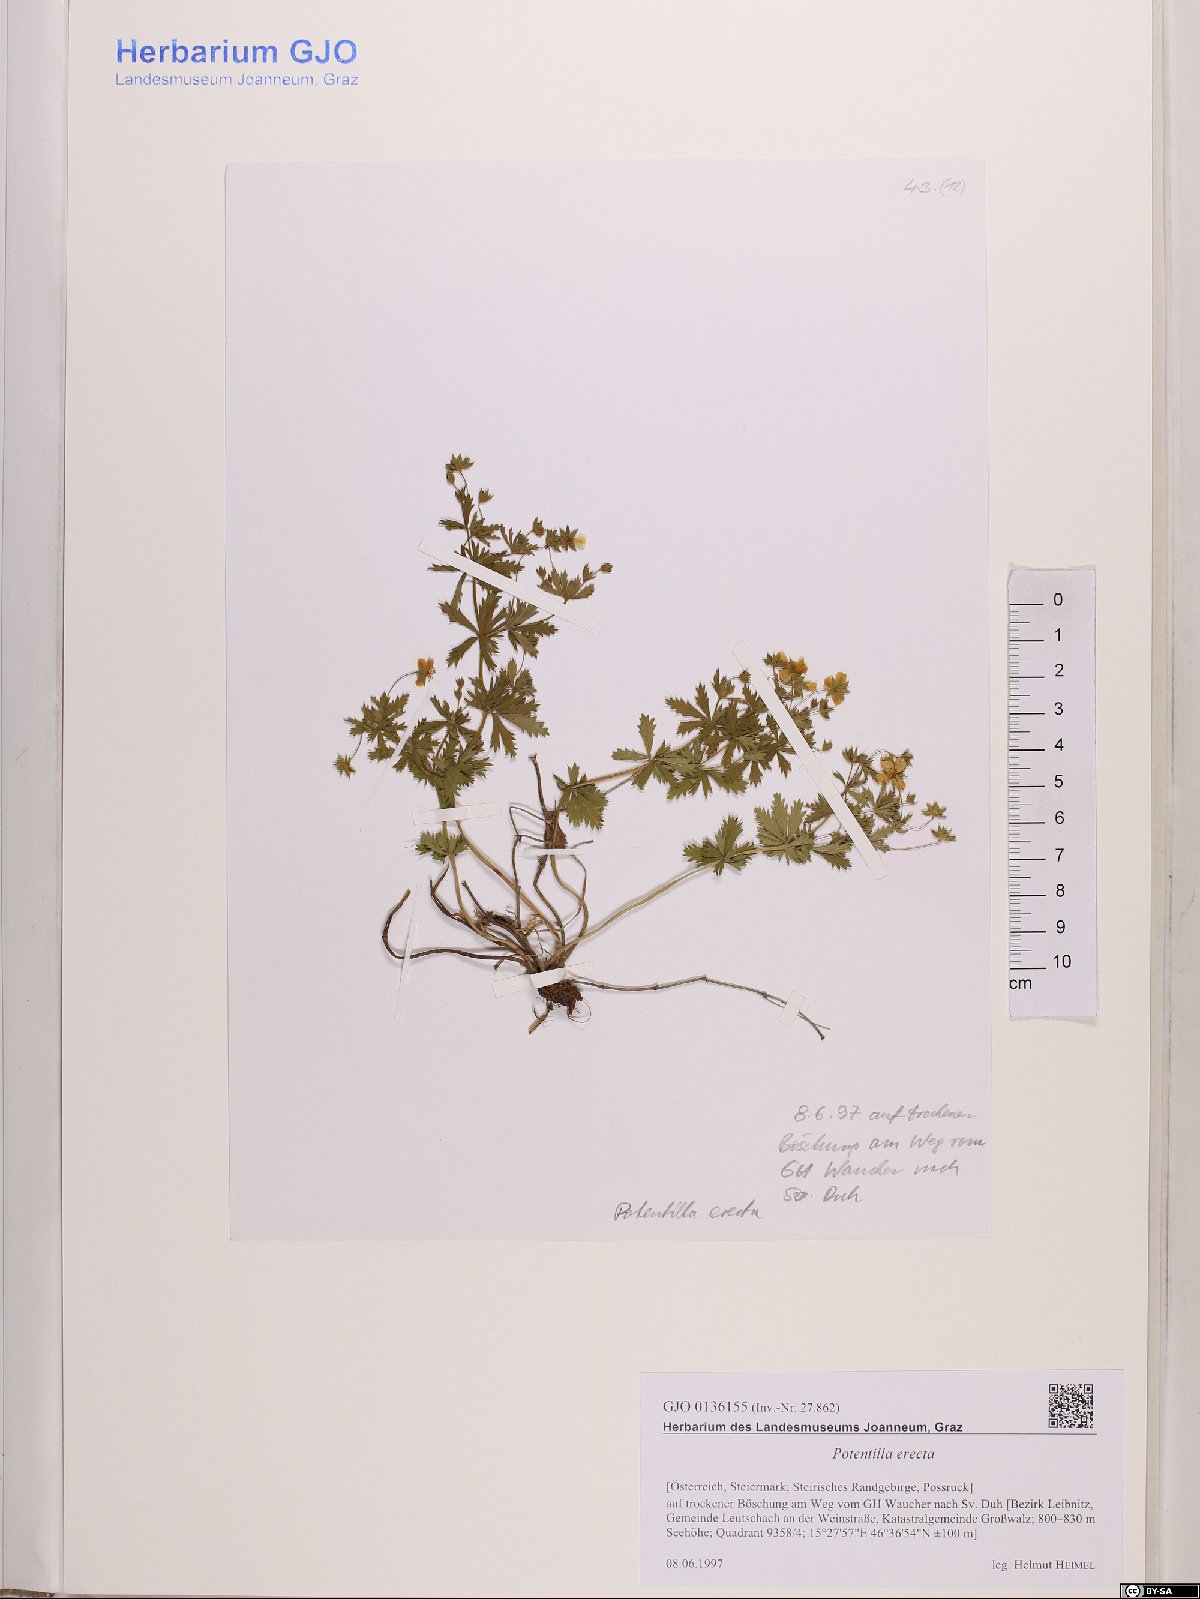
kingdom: Plantae
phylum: Tracheophyta
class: Magnoliopsida
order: Rosales
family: Rosaceae
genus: Potentilla
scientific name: Potentilla erecta
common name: Tormentil
